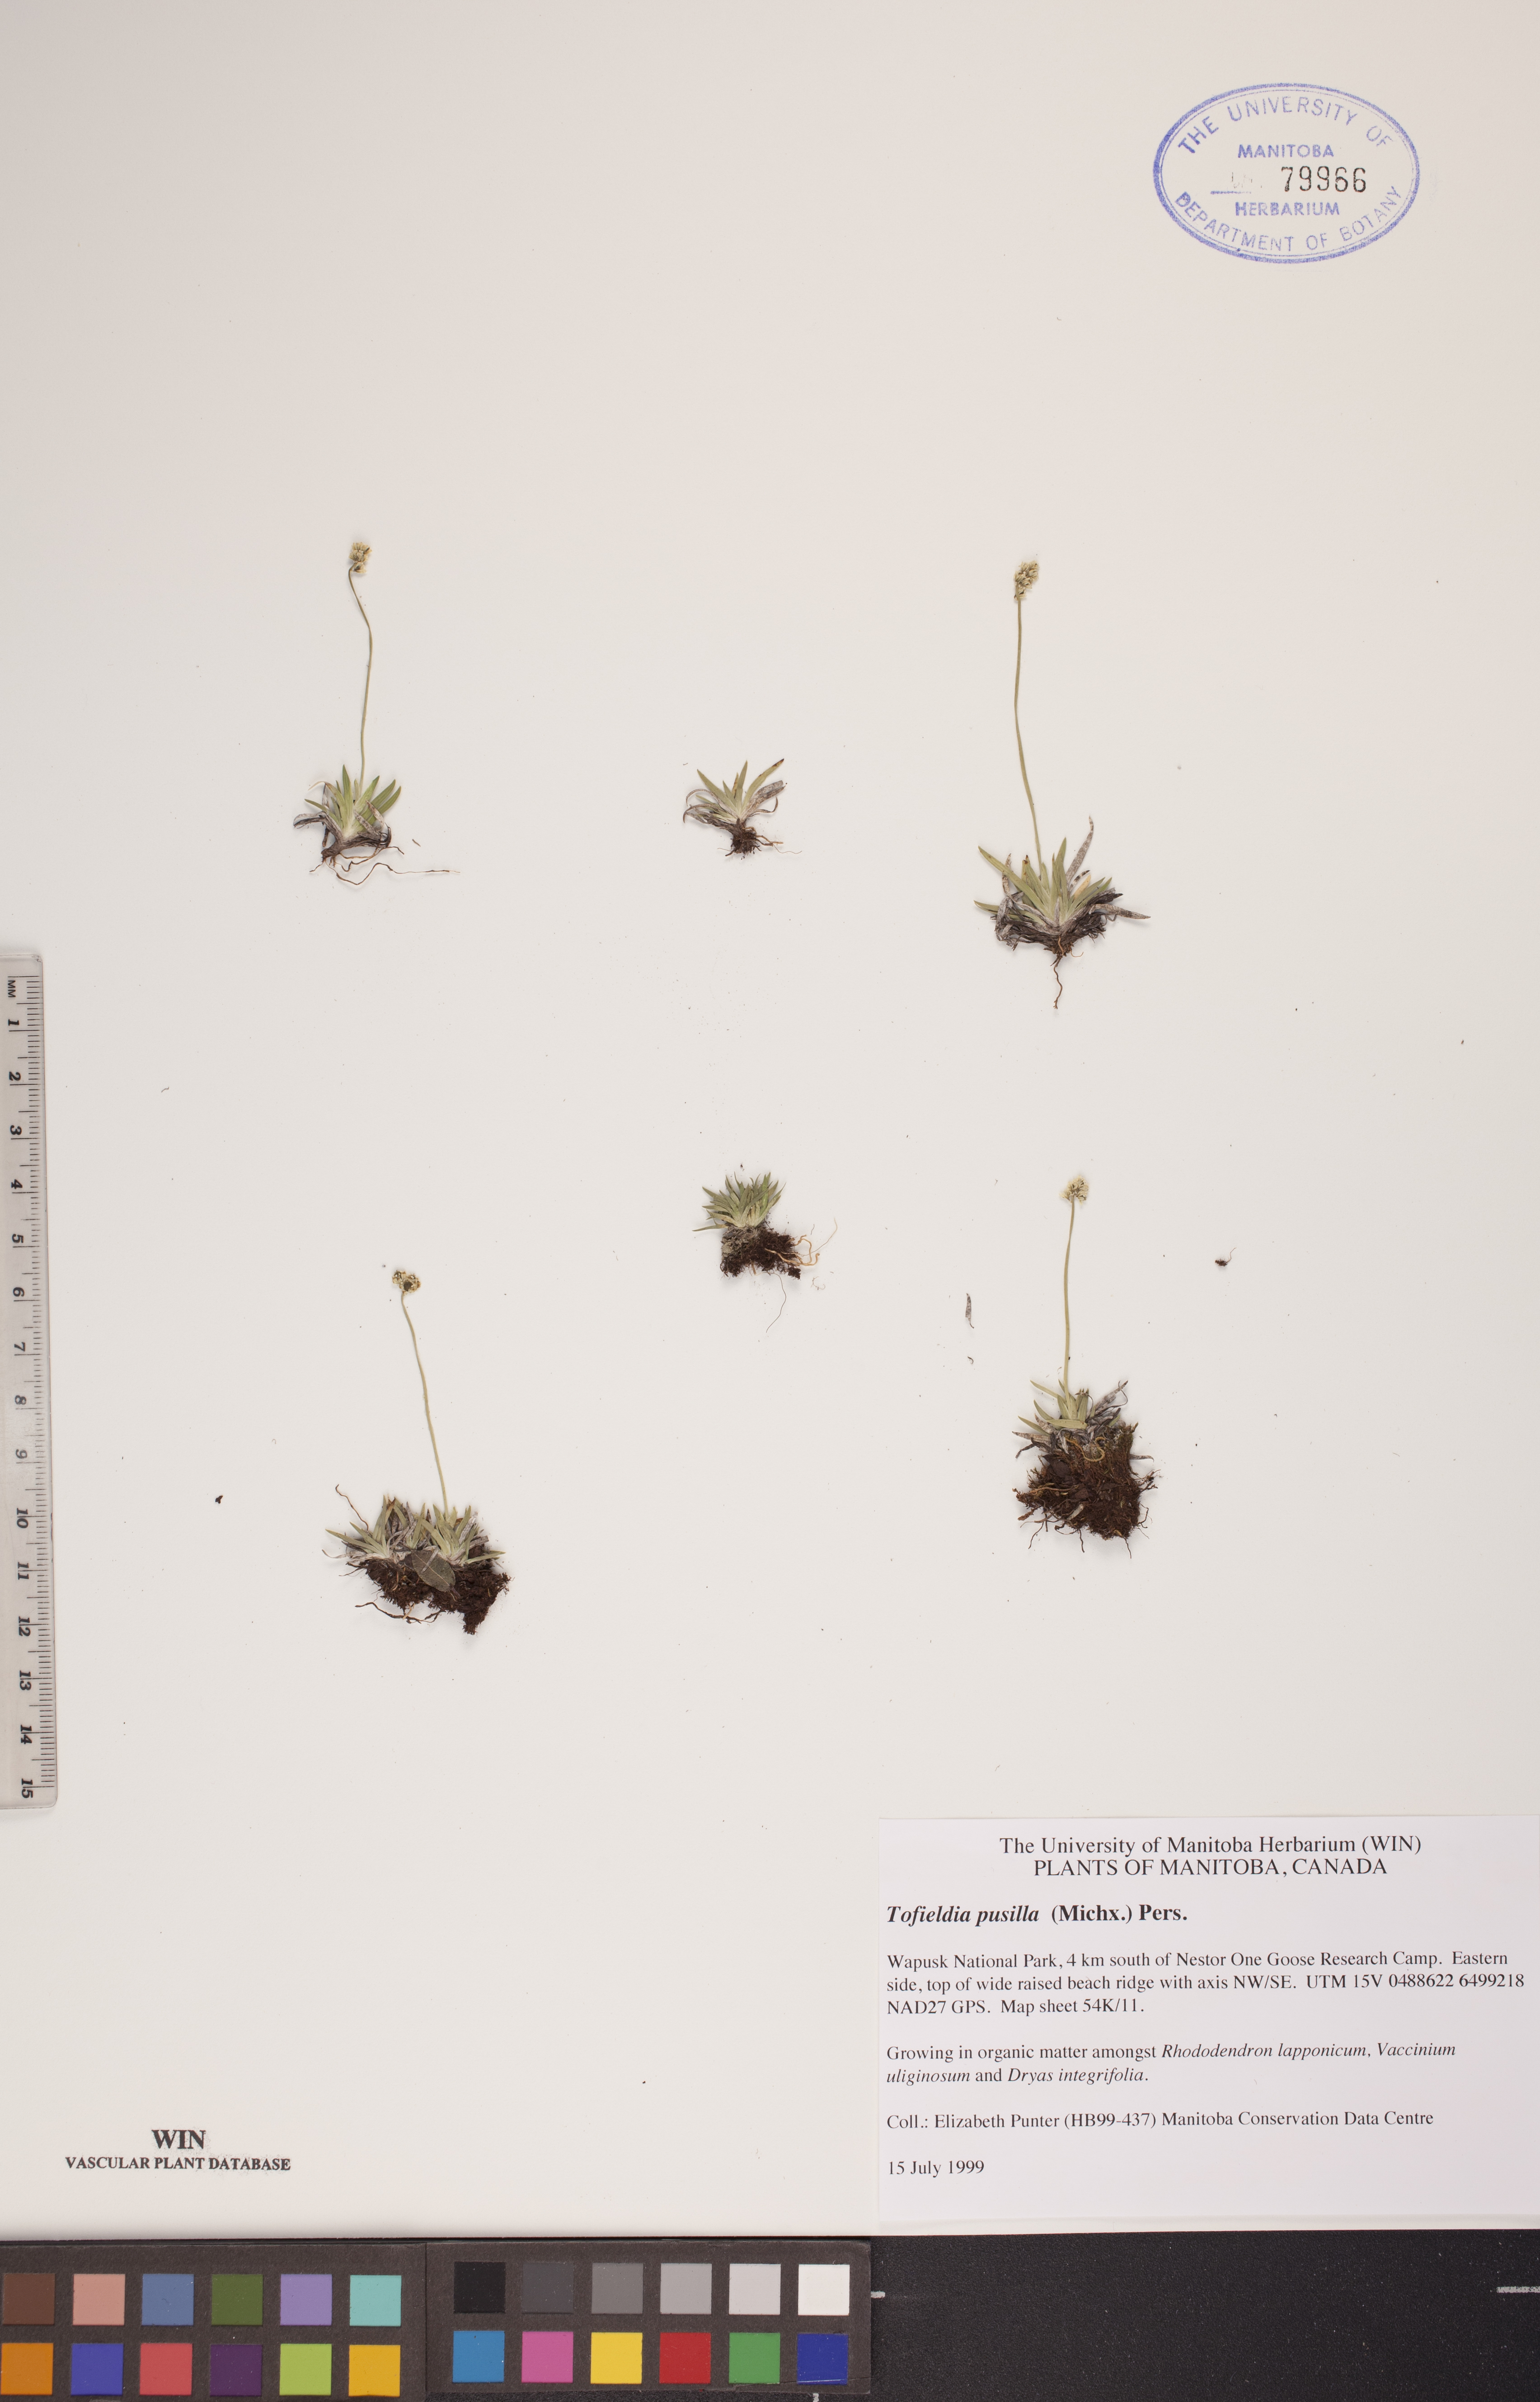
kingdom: Plantae
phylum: Tracheophyta
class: Liliopsida
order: Alismatales
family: Tofieldiaceae
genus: Tofieldia
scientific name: Tofieldia pusilla
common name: Scottish false asphodel
